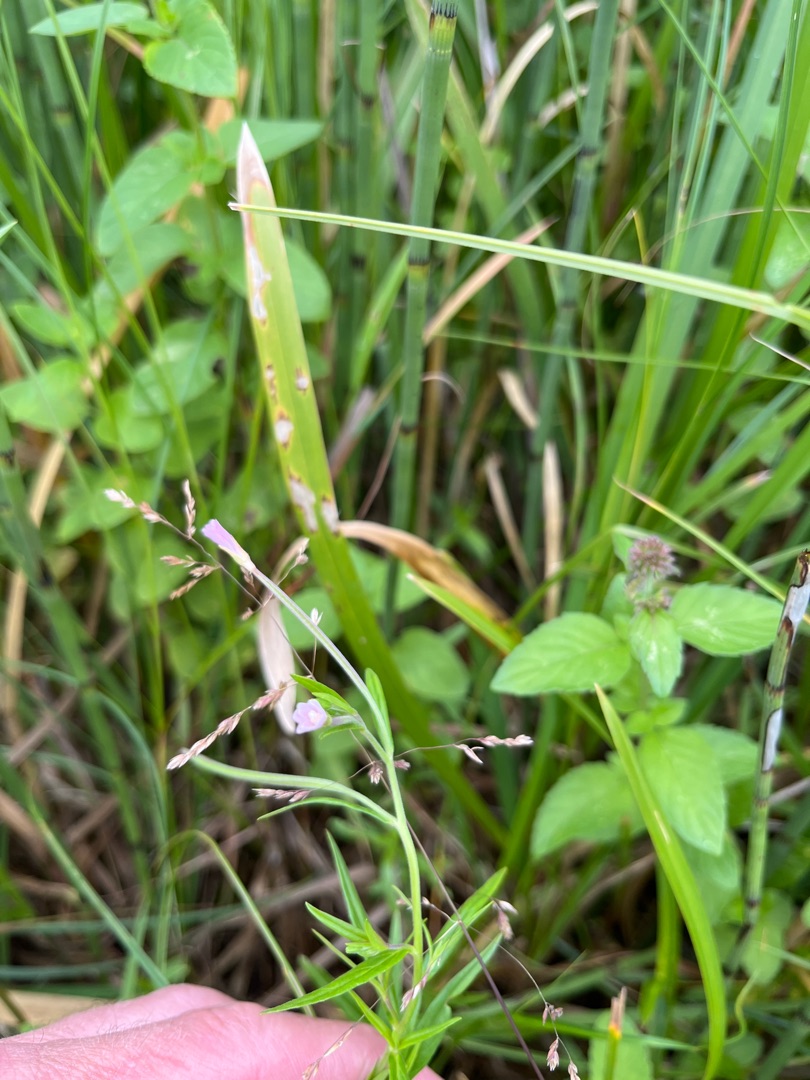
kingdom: Plantae
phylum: Tracheophyta
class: Magnoliopsida
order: Myrtales
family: Onagraceae
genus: Epilobium
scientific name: Epilobium palustre
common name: Kær-dueurt
